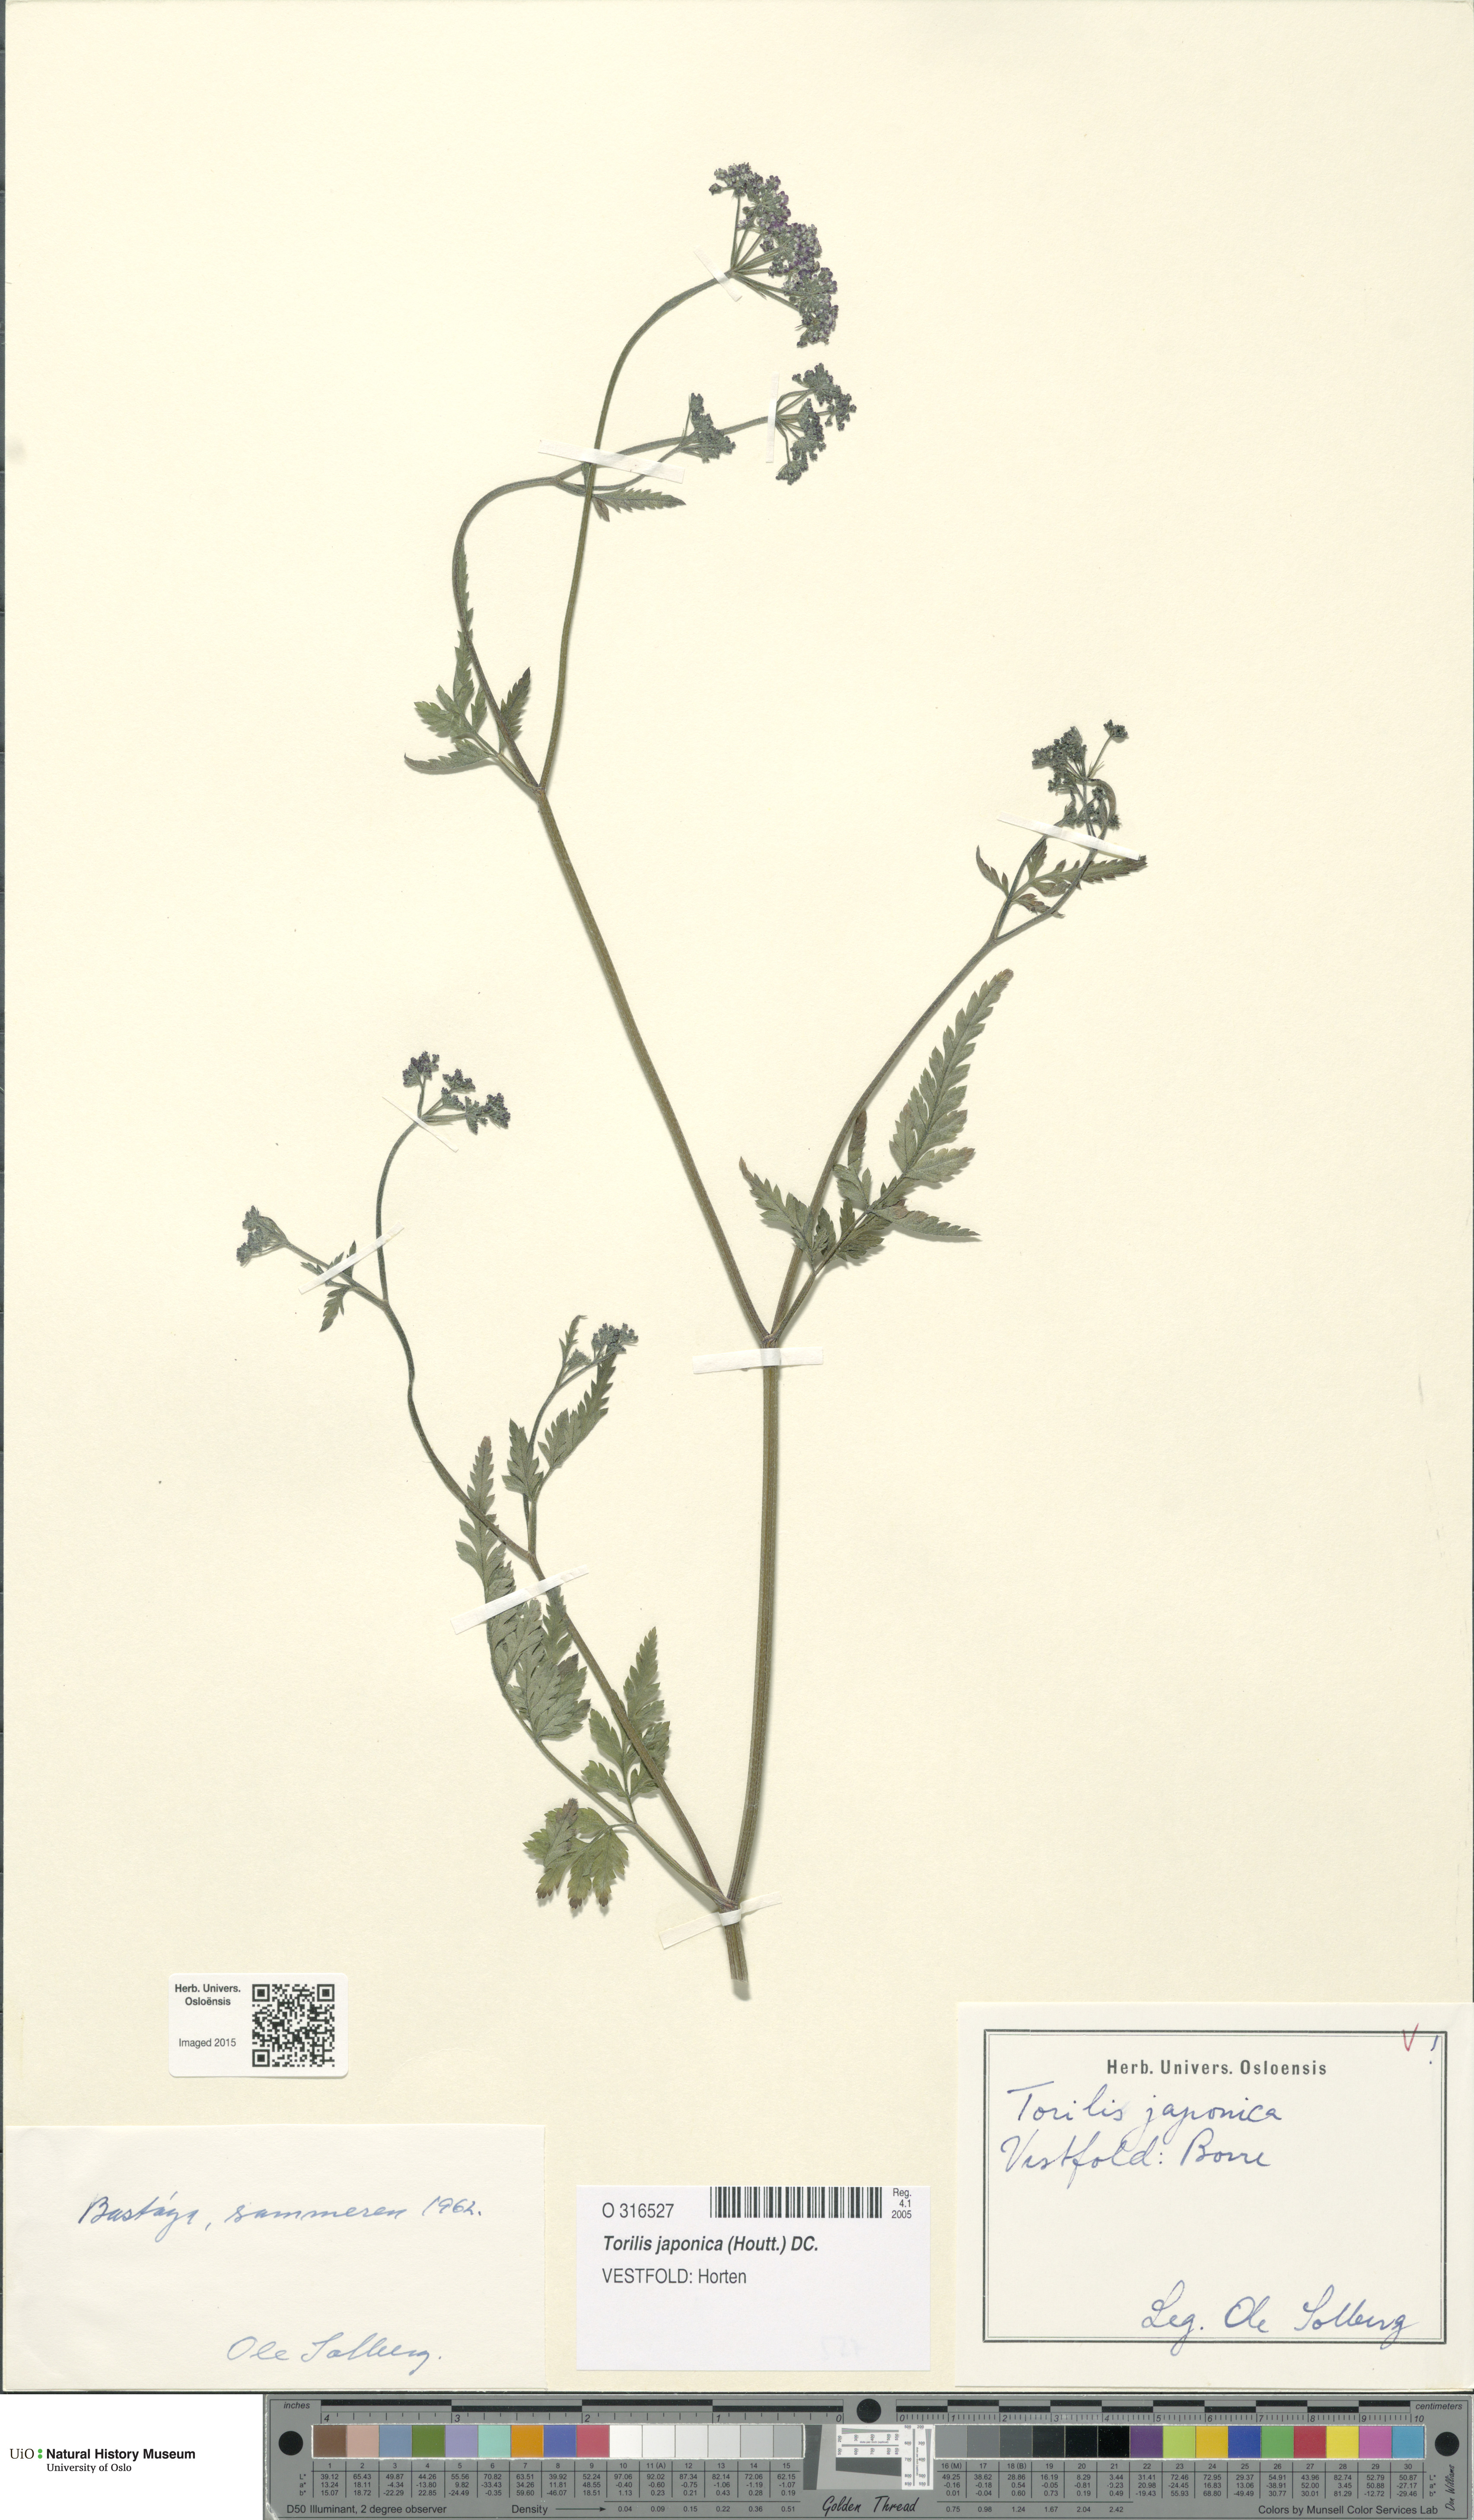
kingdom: Plantae
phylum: Tracheophyta
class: Magnoliopsida
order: Apiales
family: Apiaceae
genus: Torilis
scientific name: Torilis japonica
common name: Upright hedge-parsley
